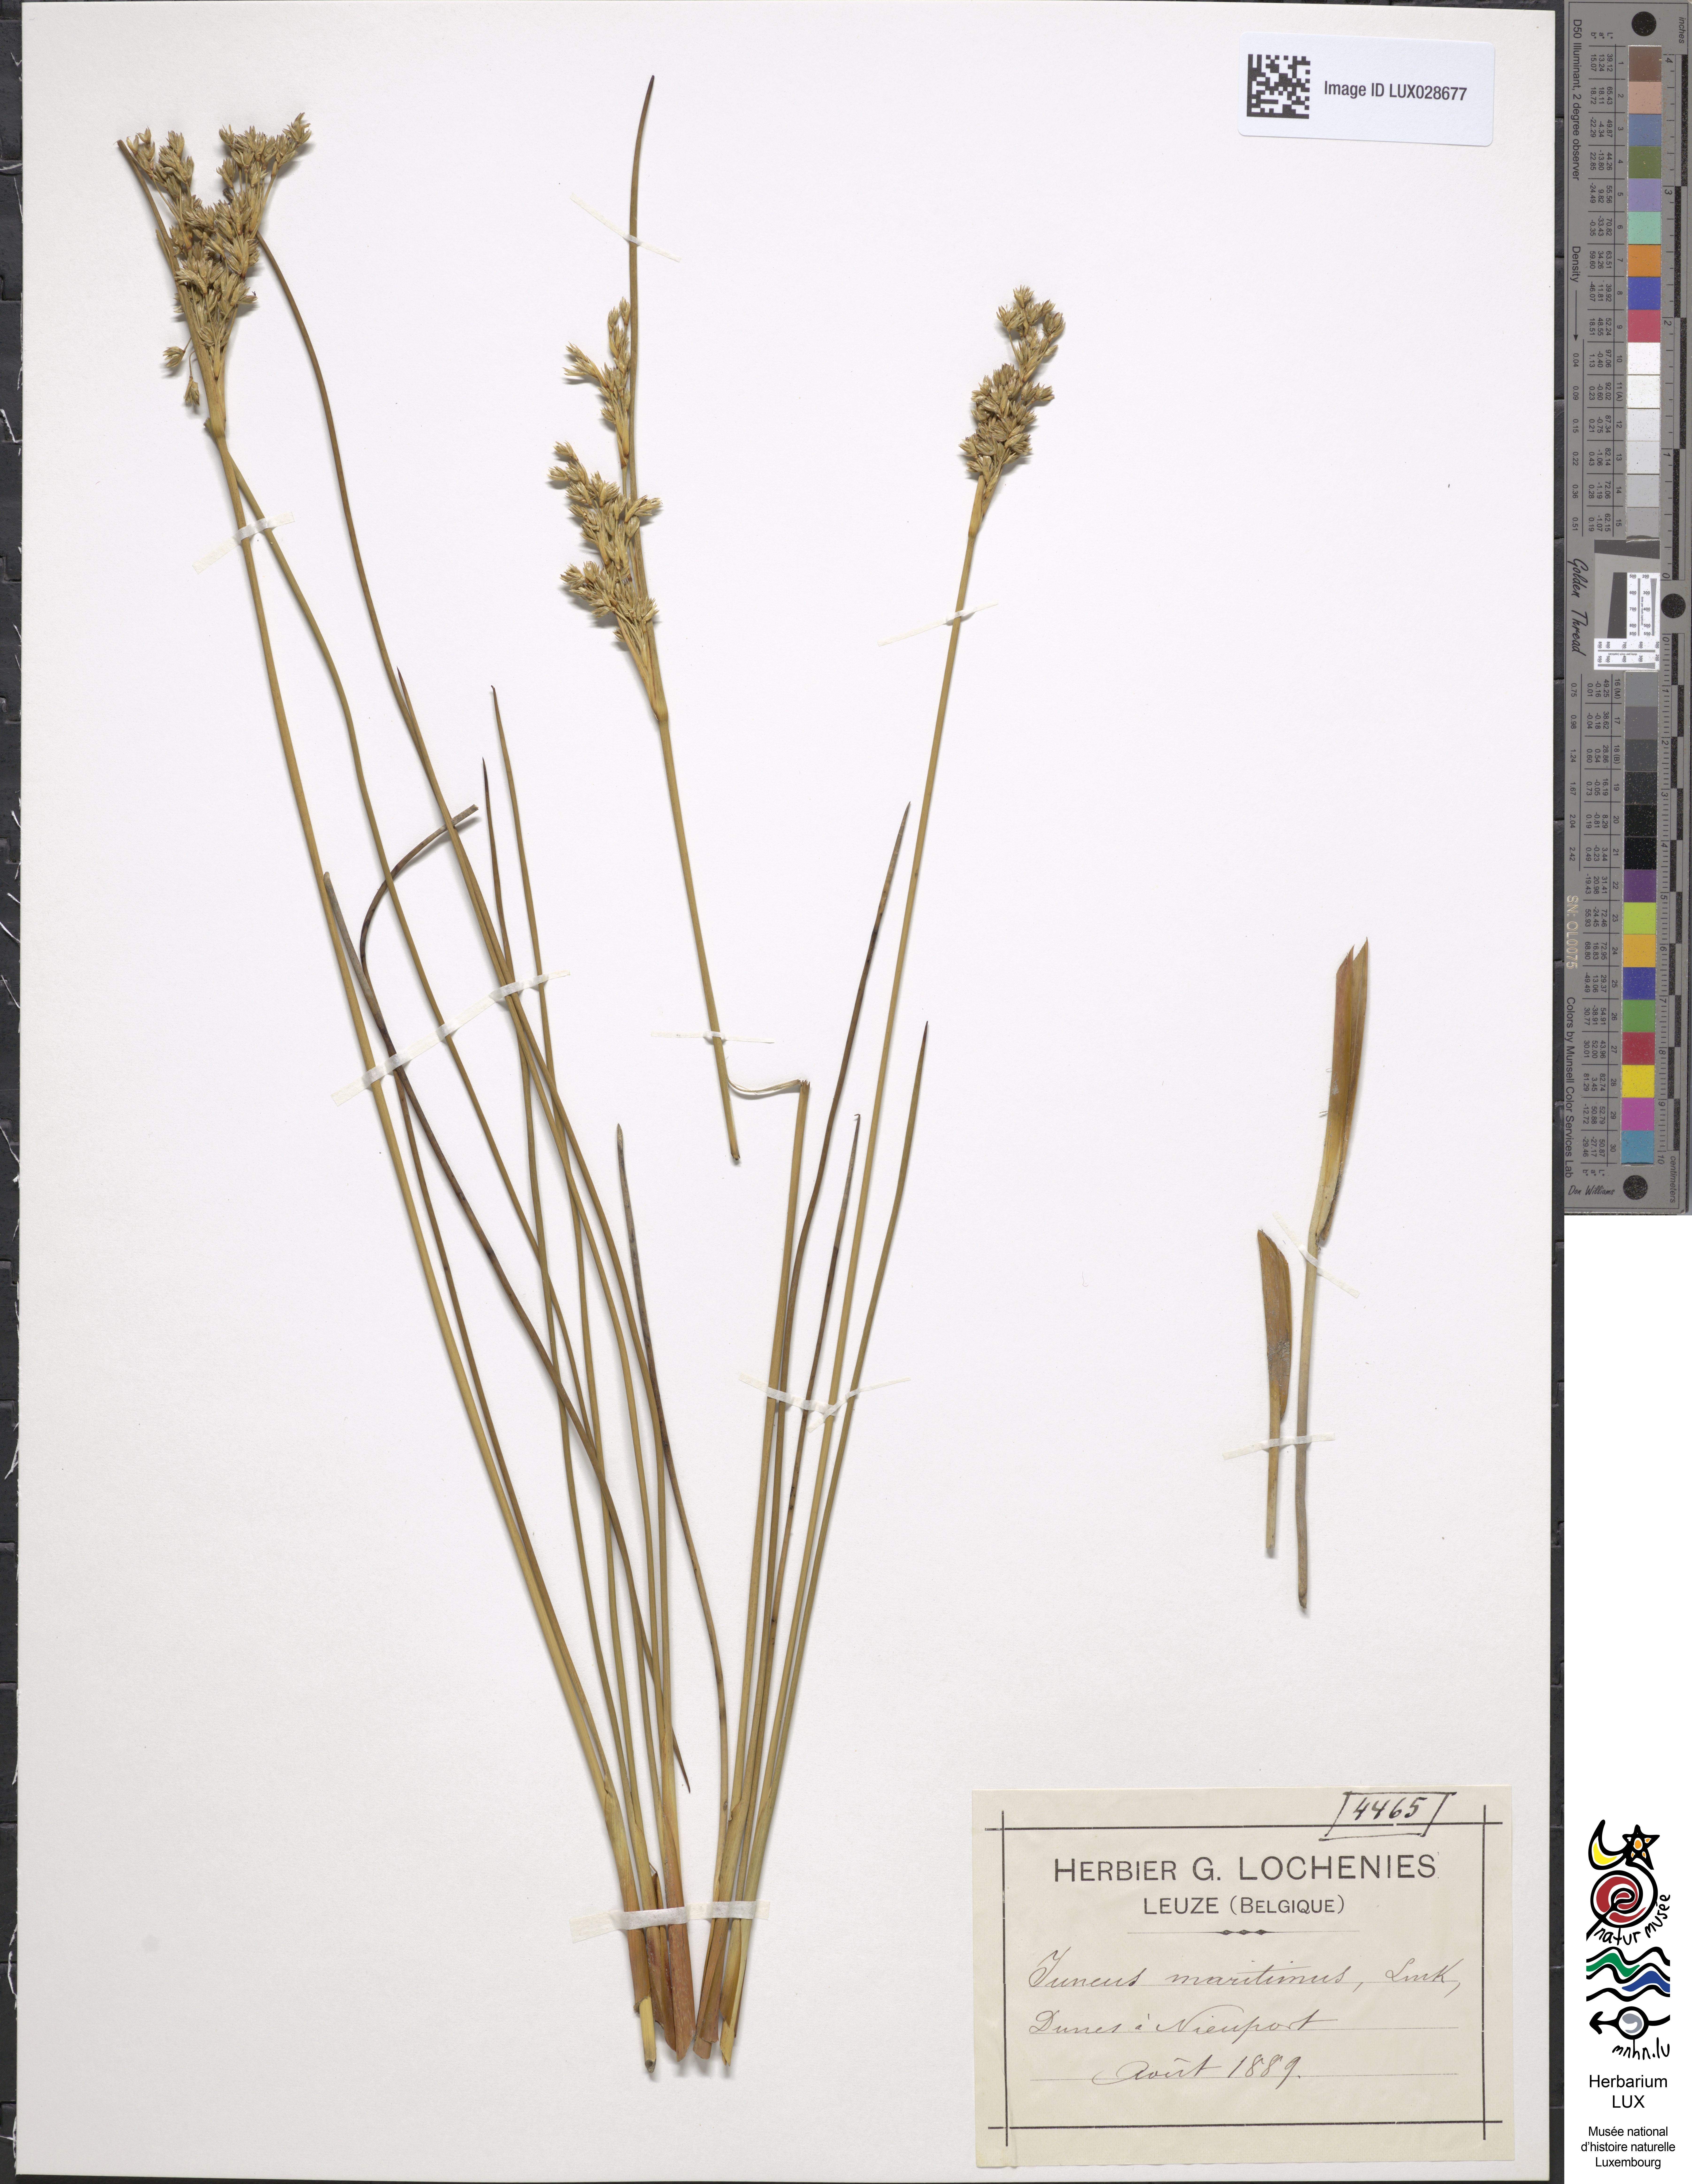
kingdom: Plantae
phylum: Tracheophyta
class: Liliopsida
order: Poales
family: Juncaceae
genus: Juncus
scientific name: Juncus maritimus
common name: Sea rush
